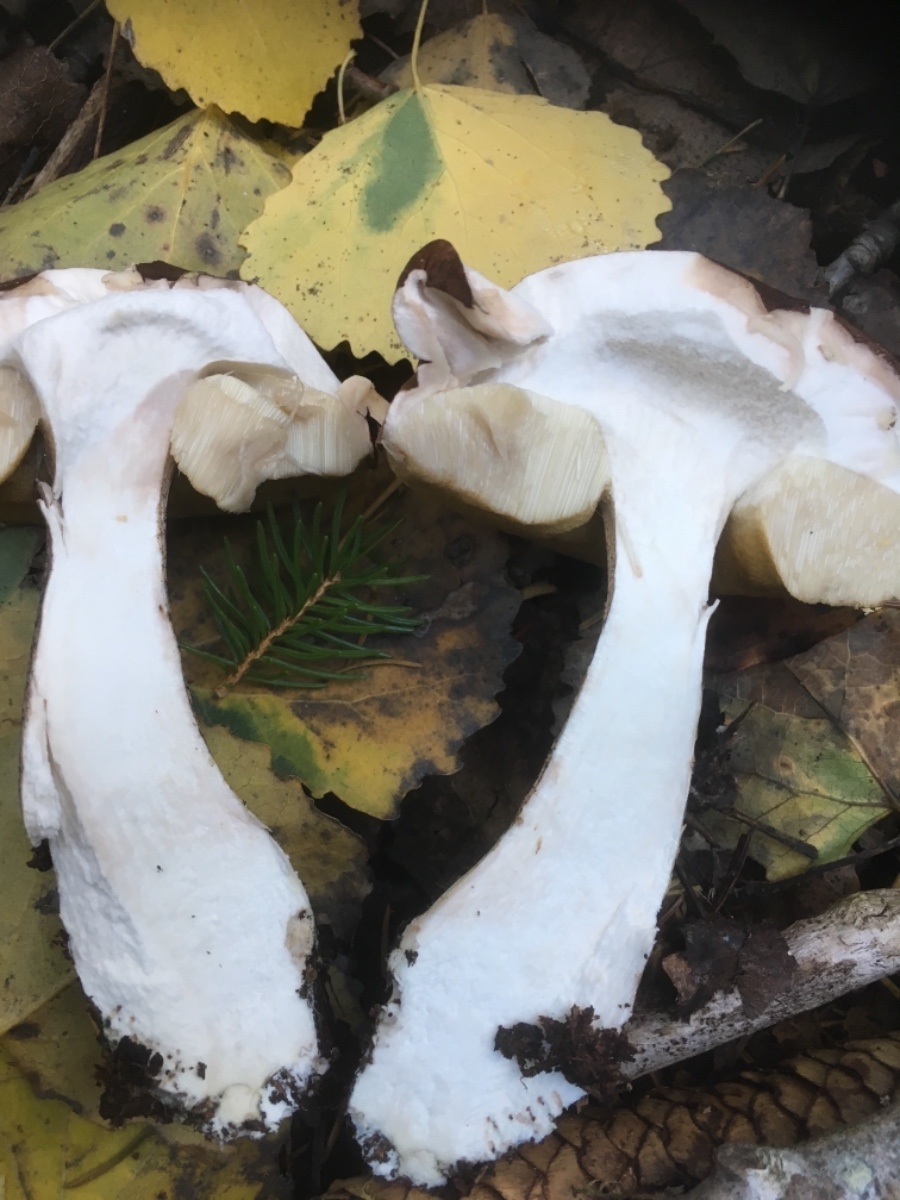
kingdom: Fungi
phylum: Basidiomycota
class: Agaricomycetes
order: Boletales
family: Boletaceae
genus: Leccinum
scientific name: Leccinum aurantiacum
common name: rustrød skælrørhat
